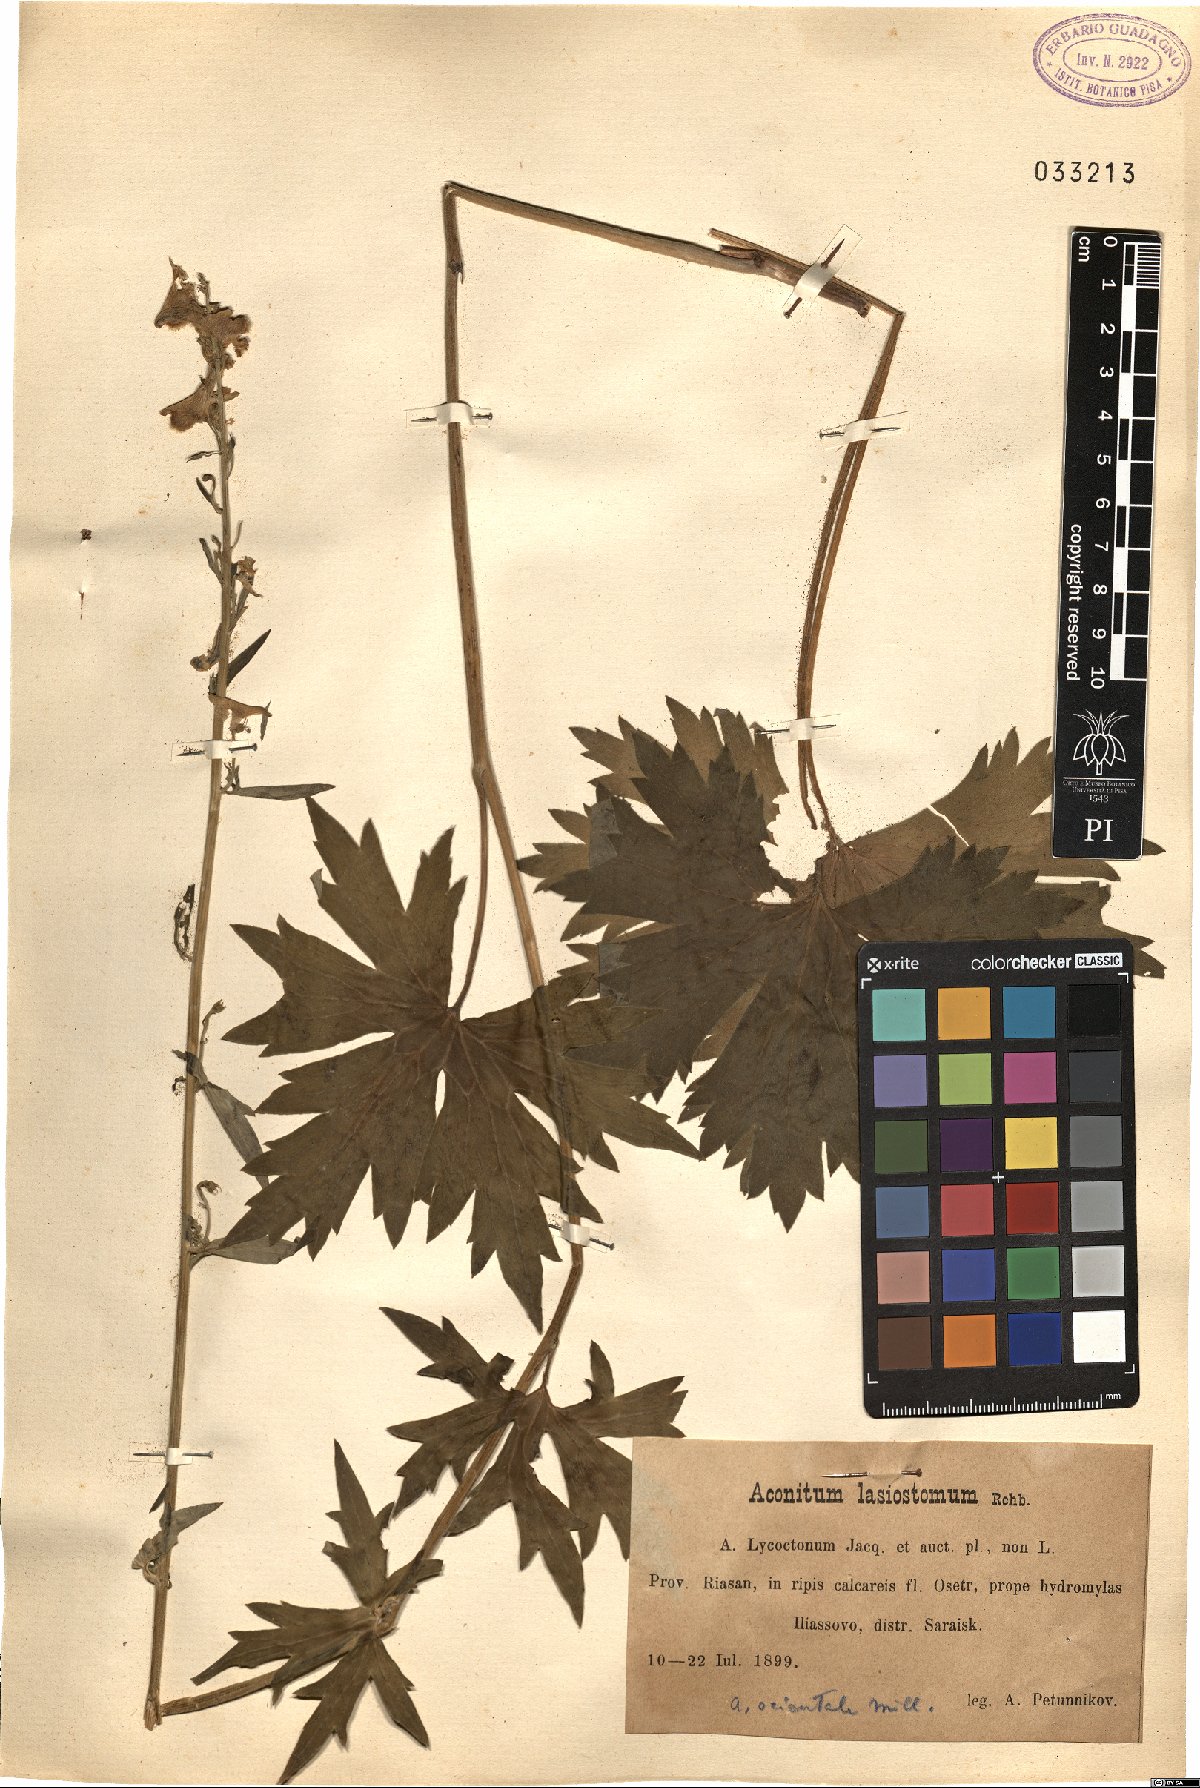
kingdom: Plantae
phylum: Tracheophyta
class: Magnoliopsida
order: Ranunculales
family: Ranunculaceae
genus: Aconitum
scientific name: Aconitum lycoctonum
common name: Wolf's-bane
